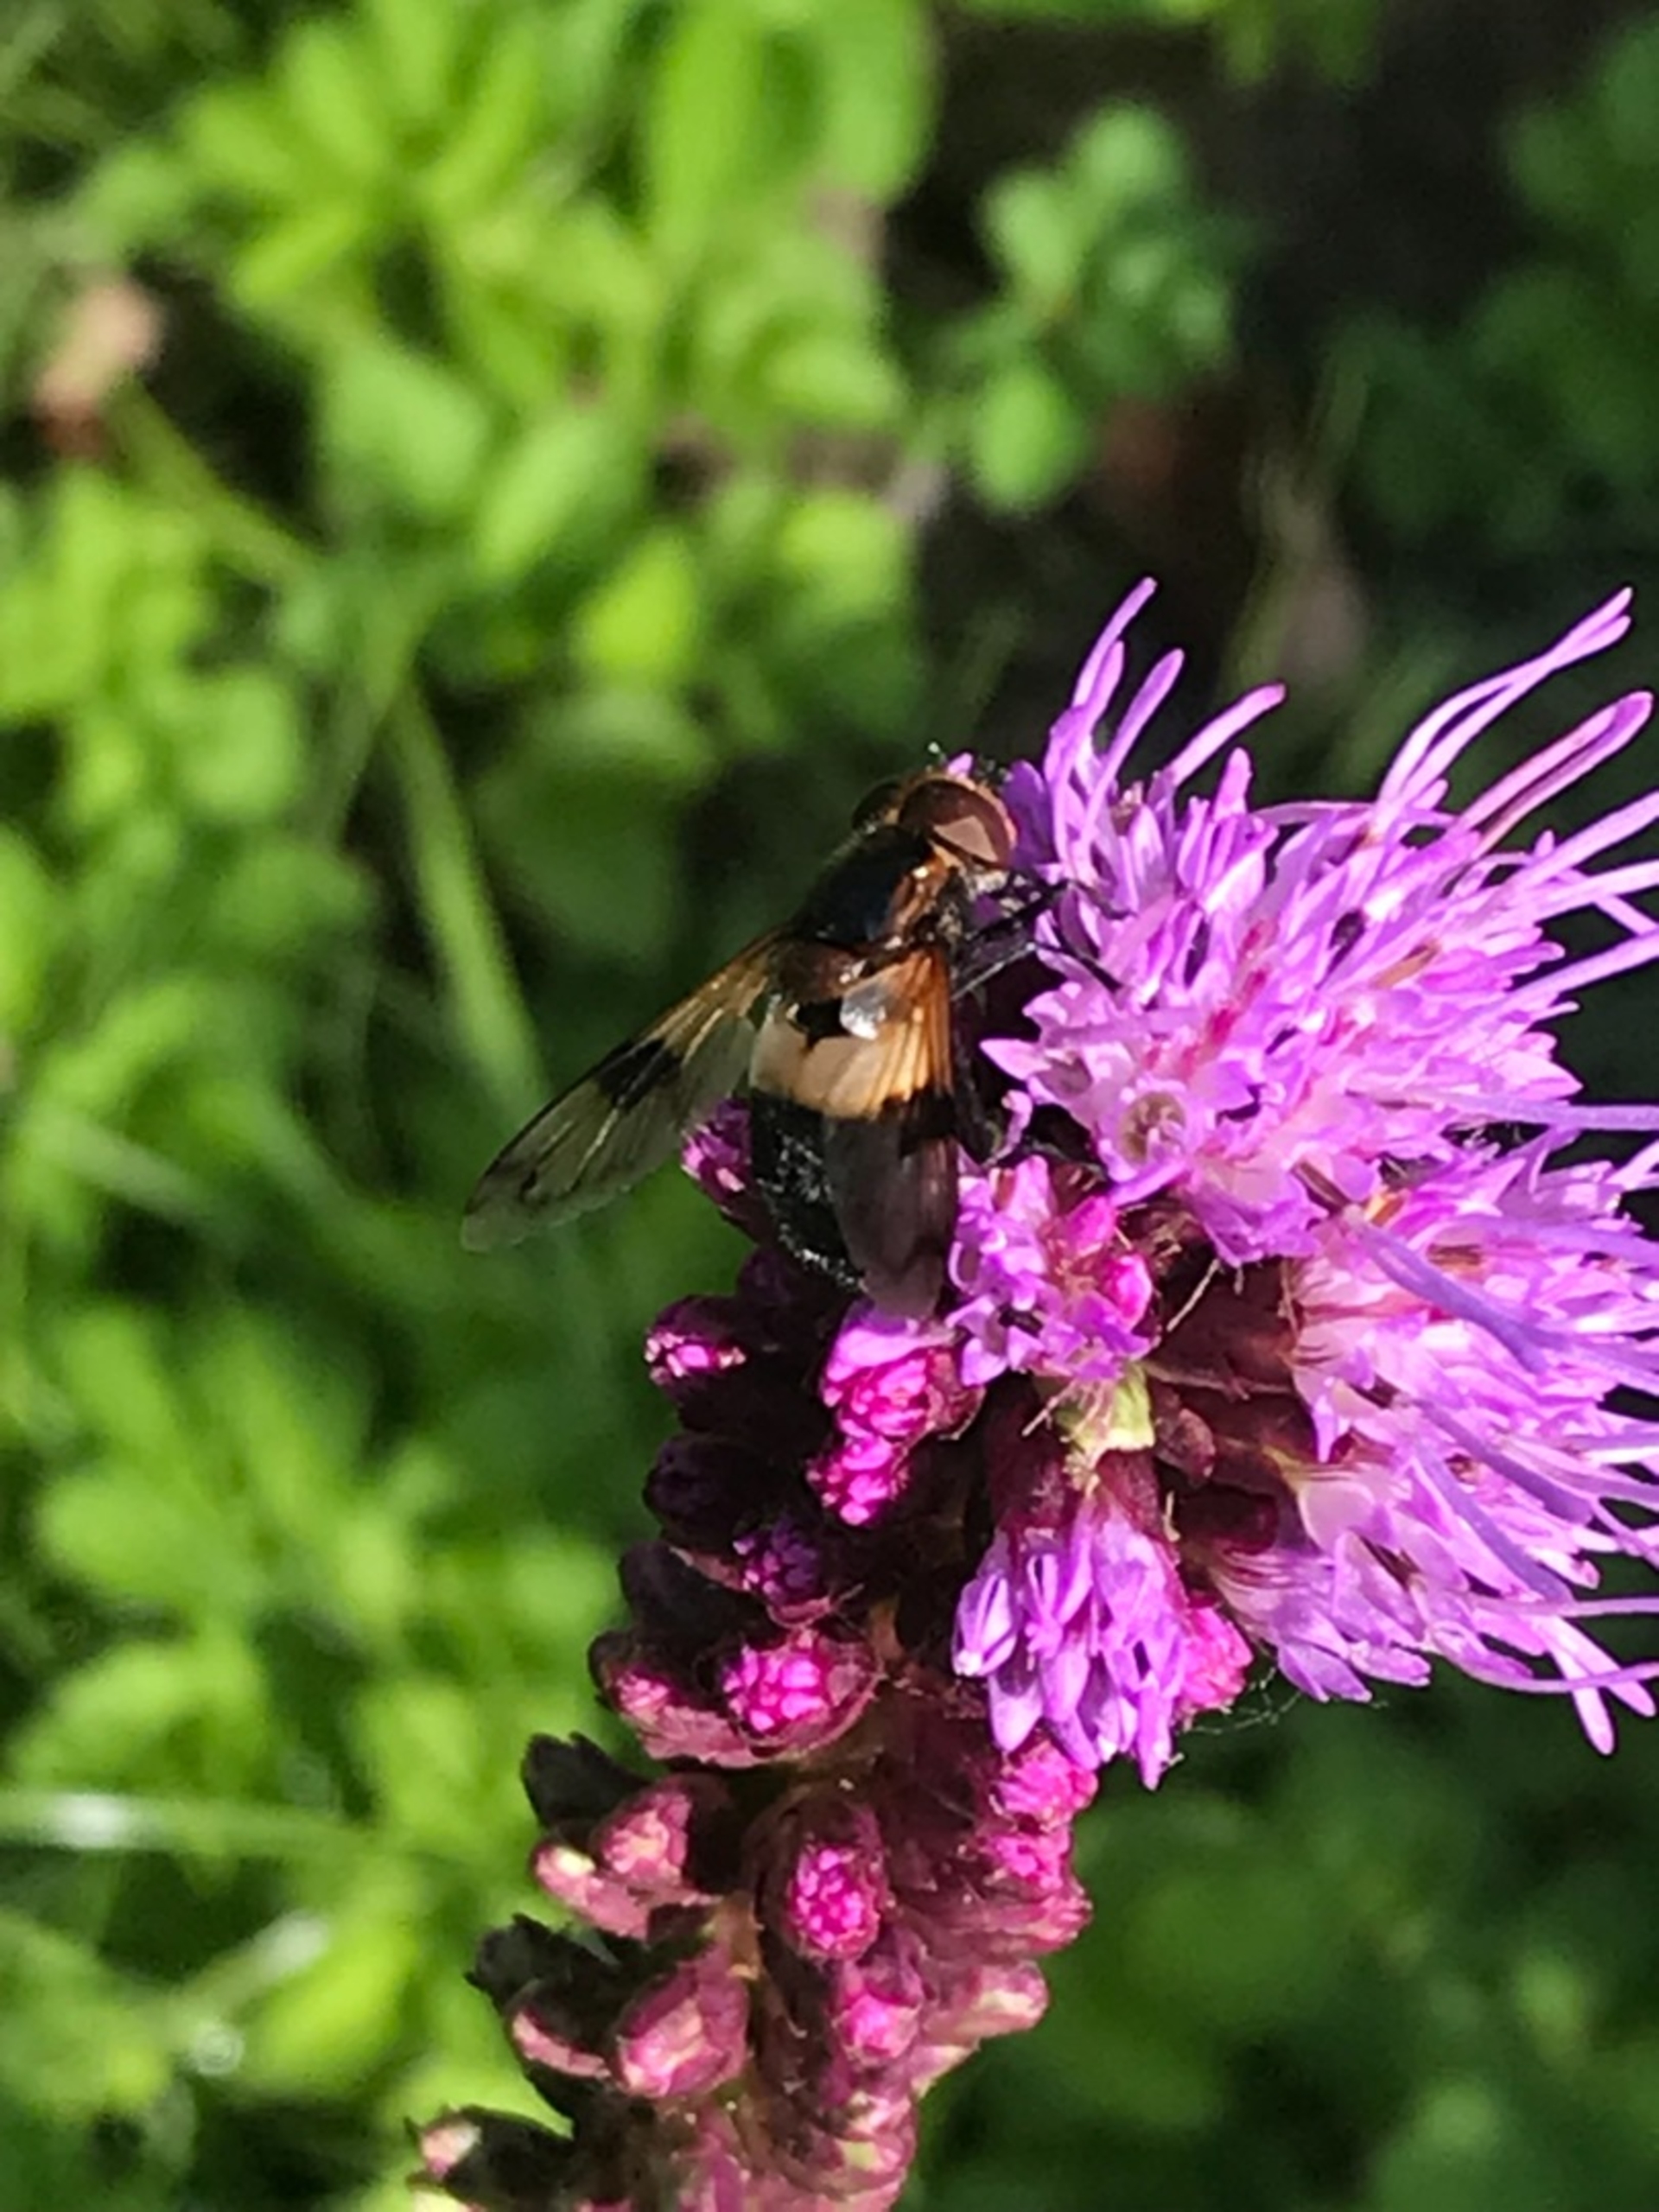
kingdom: Animalia
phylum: Arthropoda
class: Insecta
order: Diptera
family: Syrphidae
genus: Volucella
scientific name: Volucella pellucens
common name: Hvidbåndet humlesvirreflue
